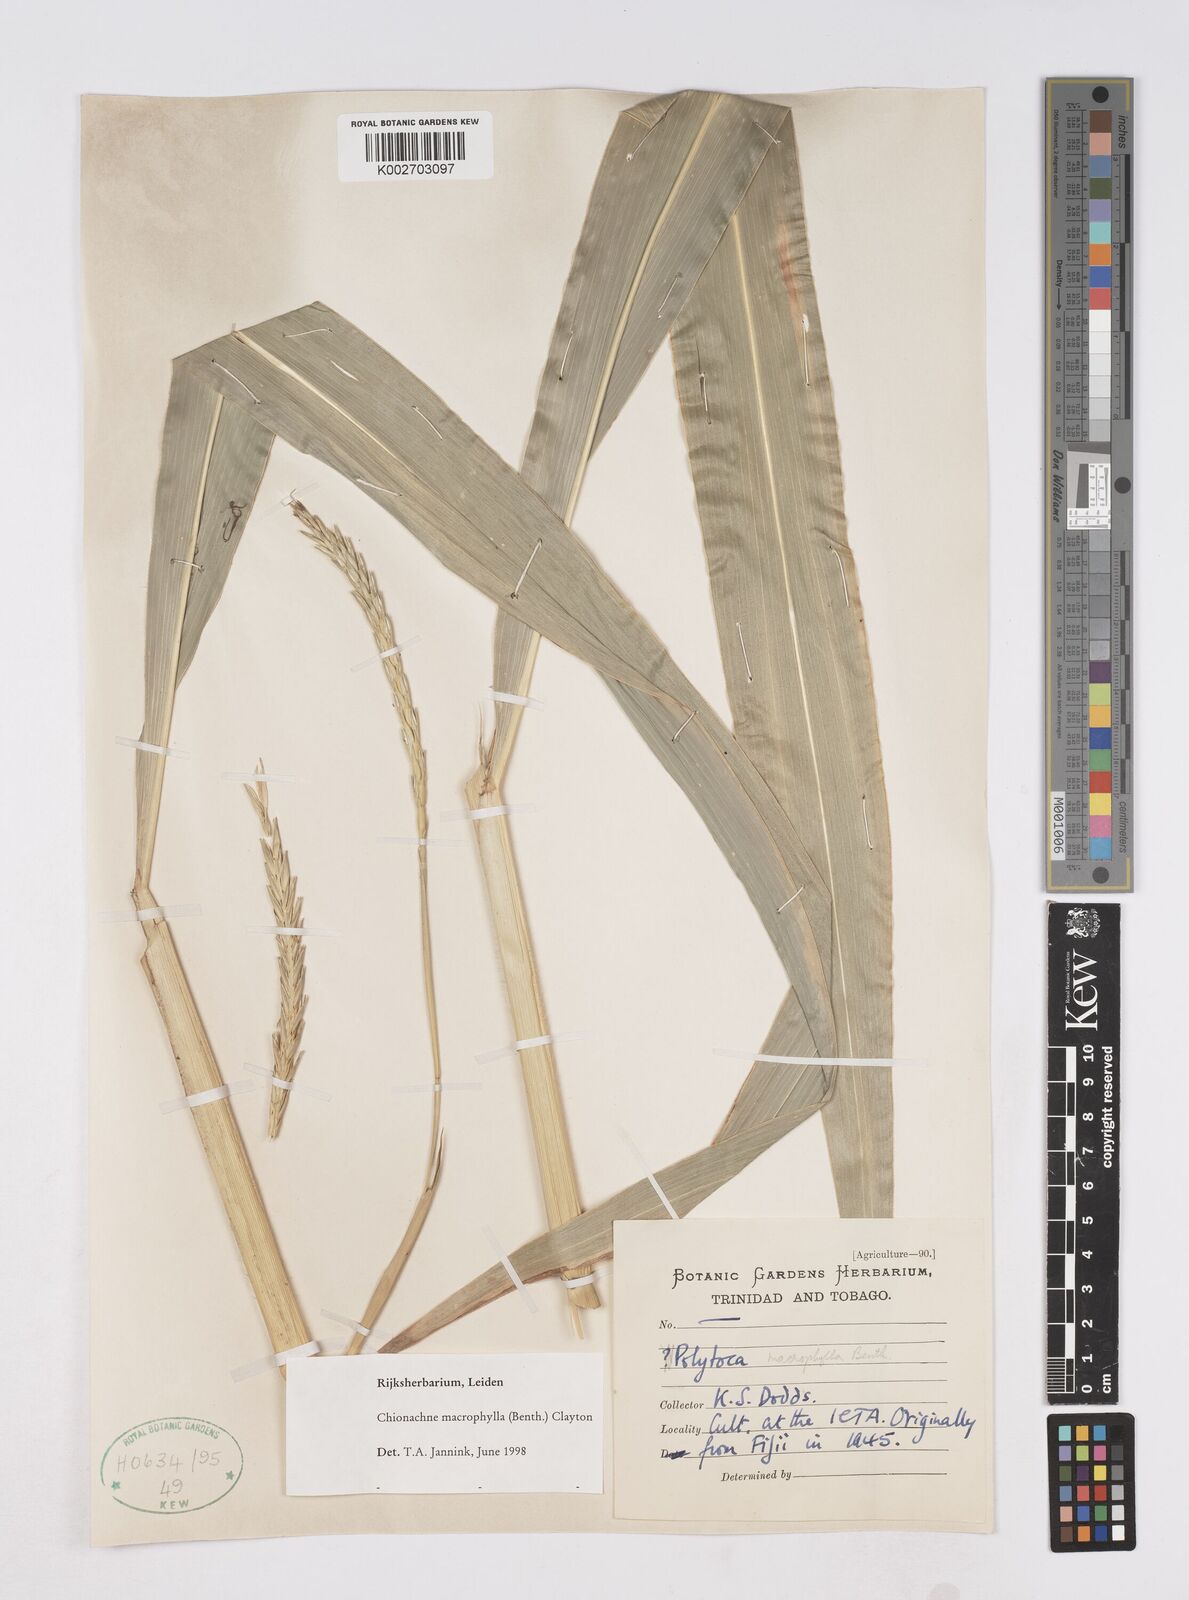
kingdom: Plantae
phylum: Tracheophyta
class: Liliopsida
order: Poales
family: Poaceae
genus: Polytoca
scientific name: Polytoca macrophylla
